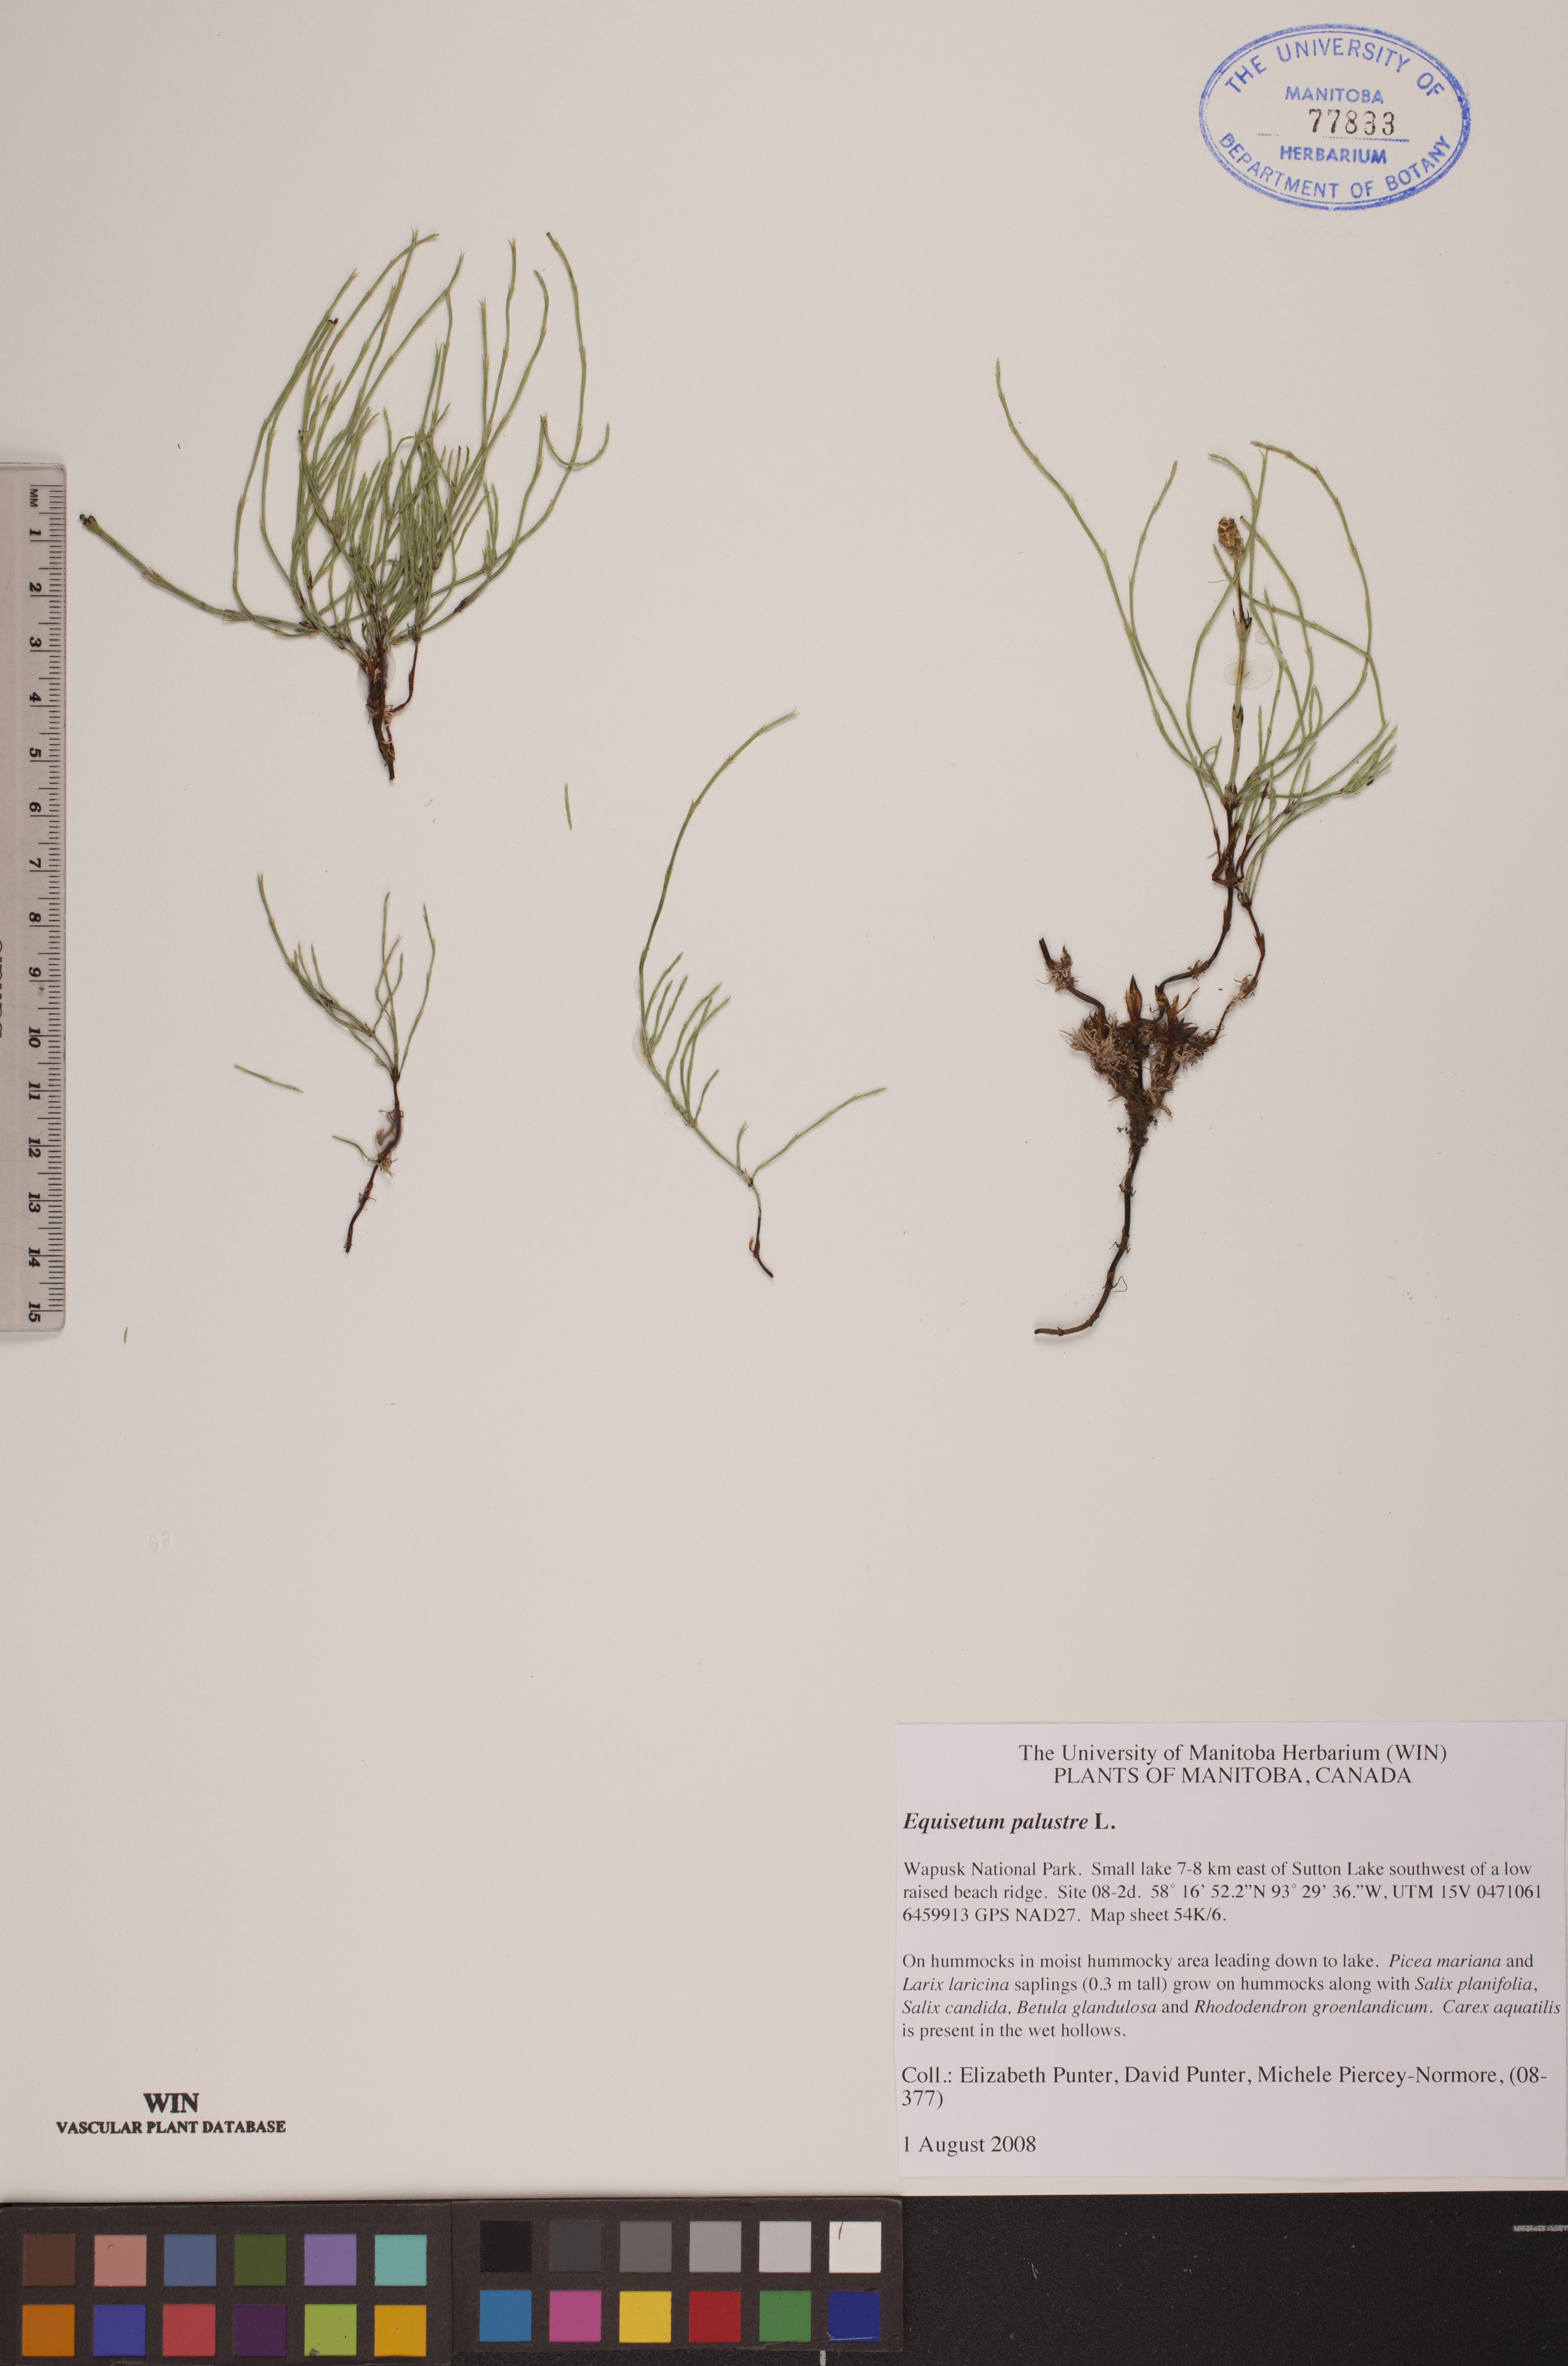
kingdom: Plantae
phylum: Tracheophyta
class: Polypodiopsida
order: Equisetales
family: Equisetaceae
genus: Equisetum
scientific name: Equisetum palustre
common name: Marsh horsetail
